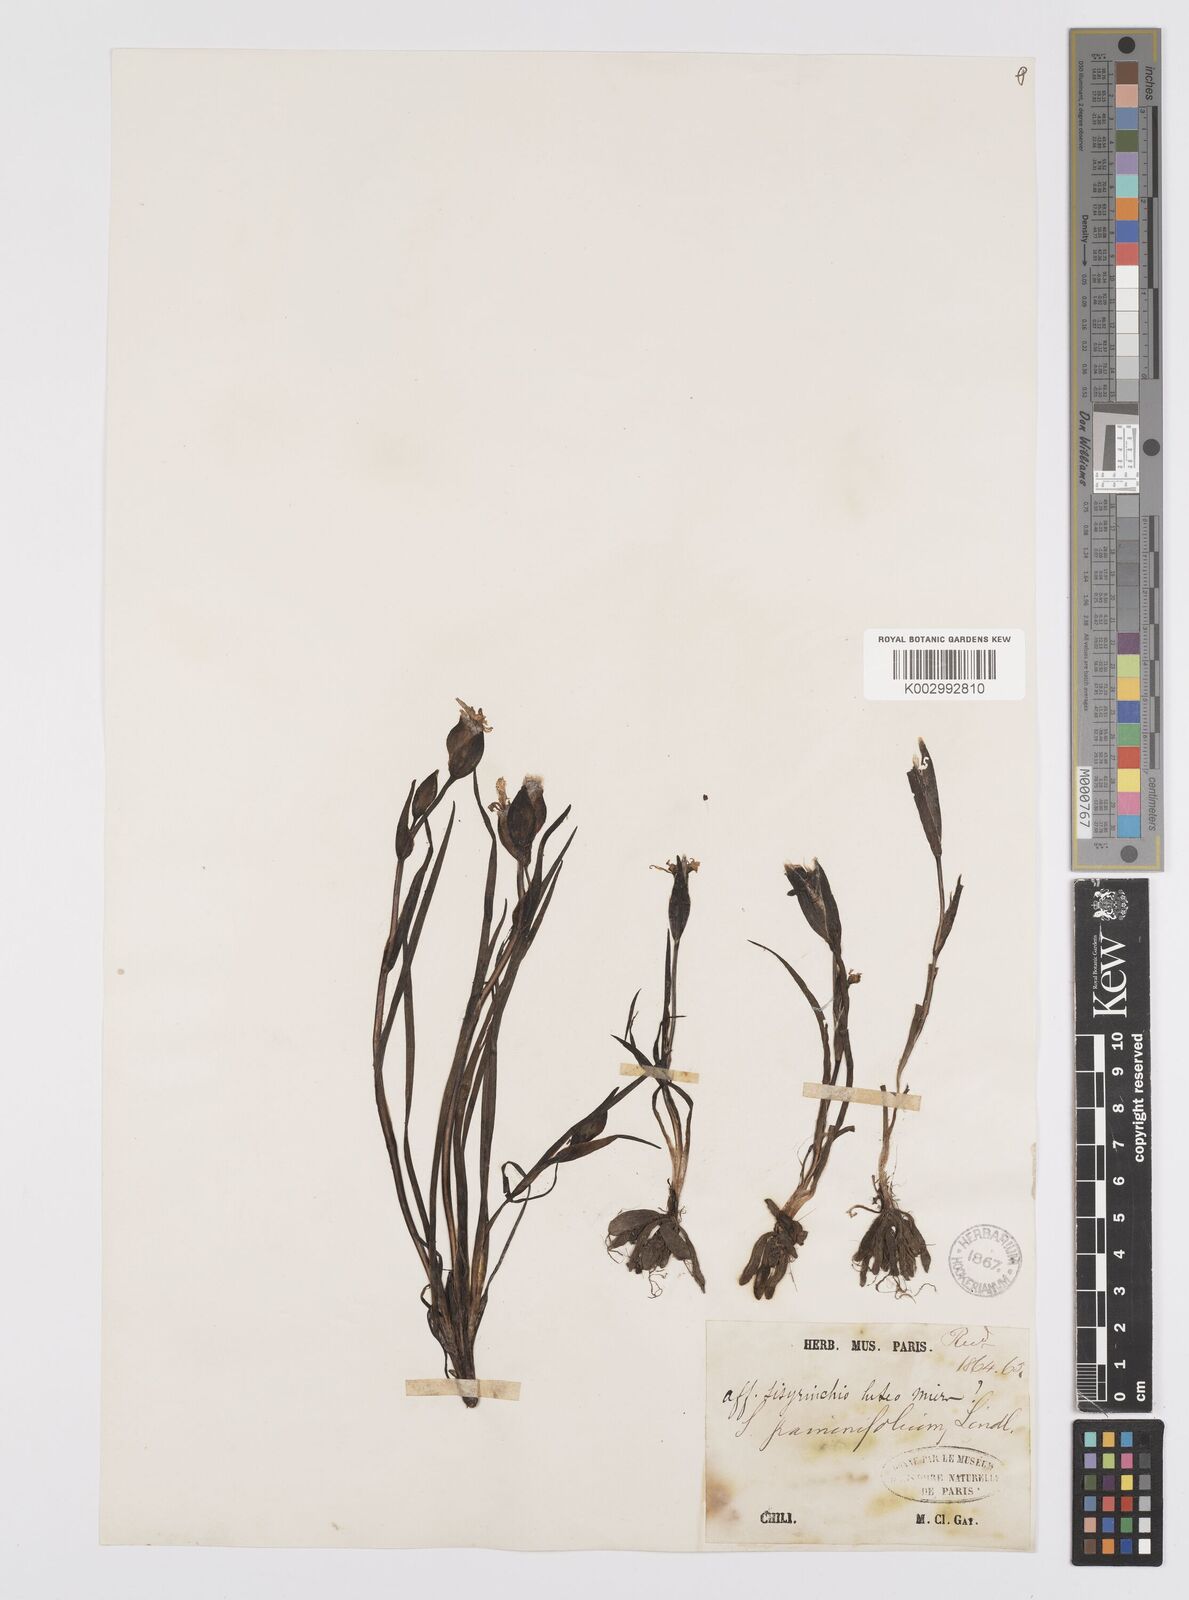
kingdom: Plantae
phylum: Tracheophyta
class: Liliopsida
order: Asparagales
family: Iridaceae
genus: Sisyrinchium
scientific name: Sisyrinchium graminifolium
